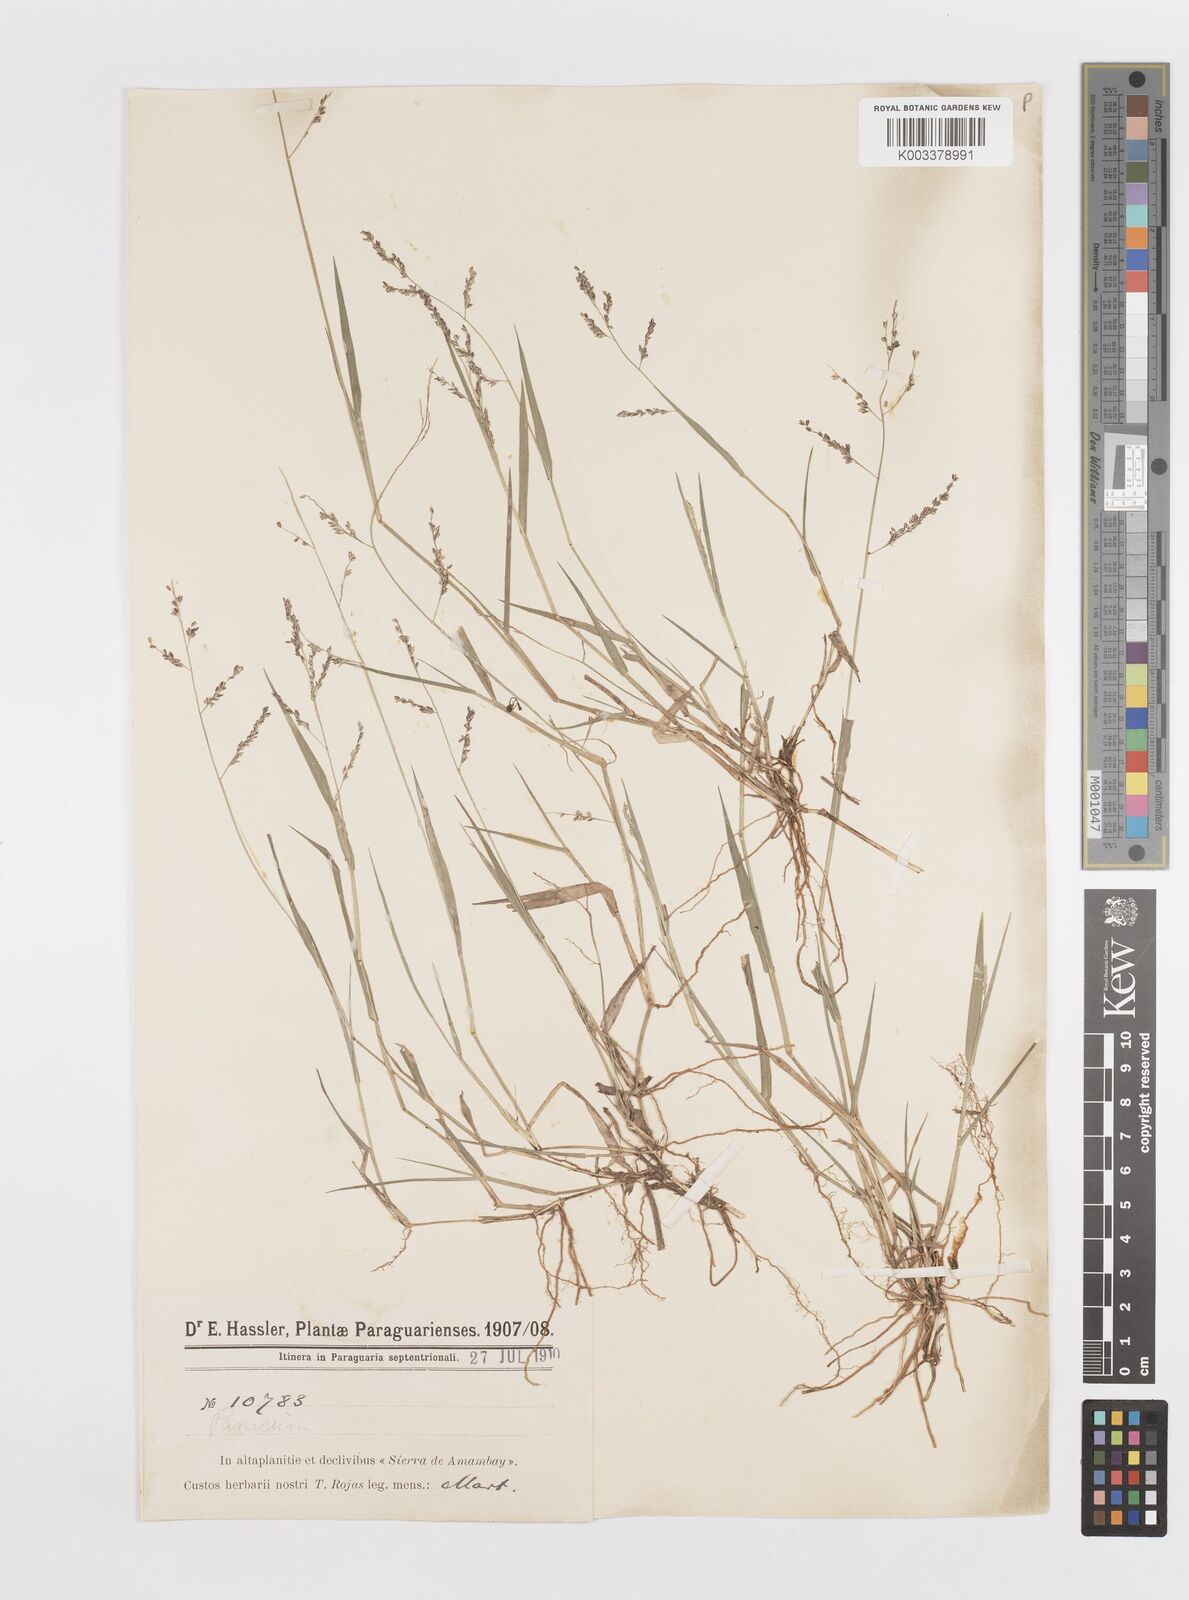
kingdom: Plantae
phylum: Tracheophyta
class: Liliopsida
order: Poales
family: Poaceae
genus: Steinchisma
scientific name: Steinchisma hians
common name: Gaping panic grass
